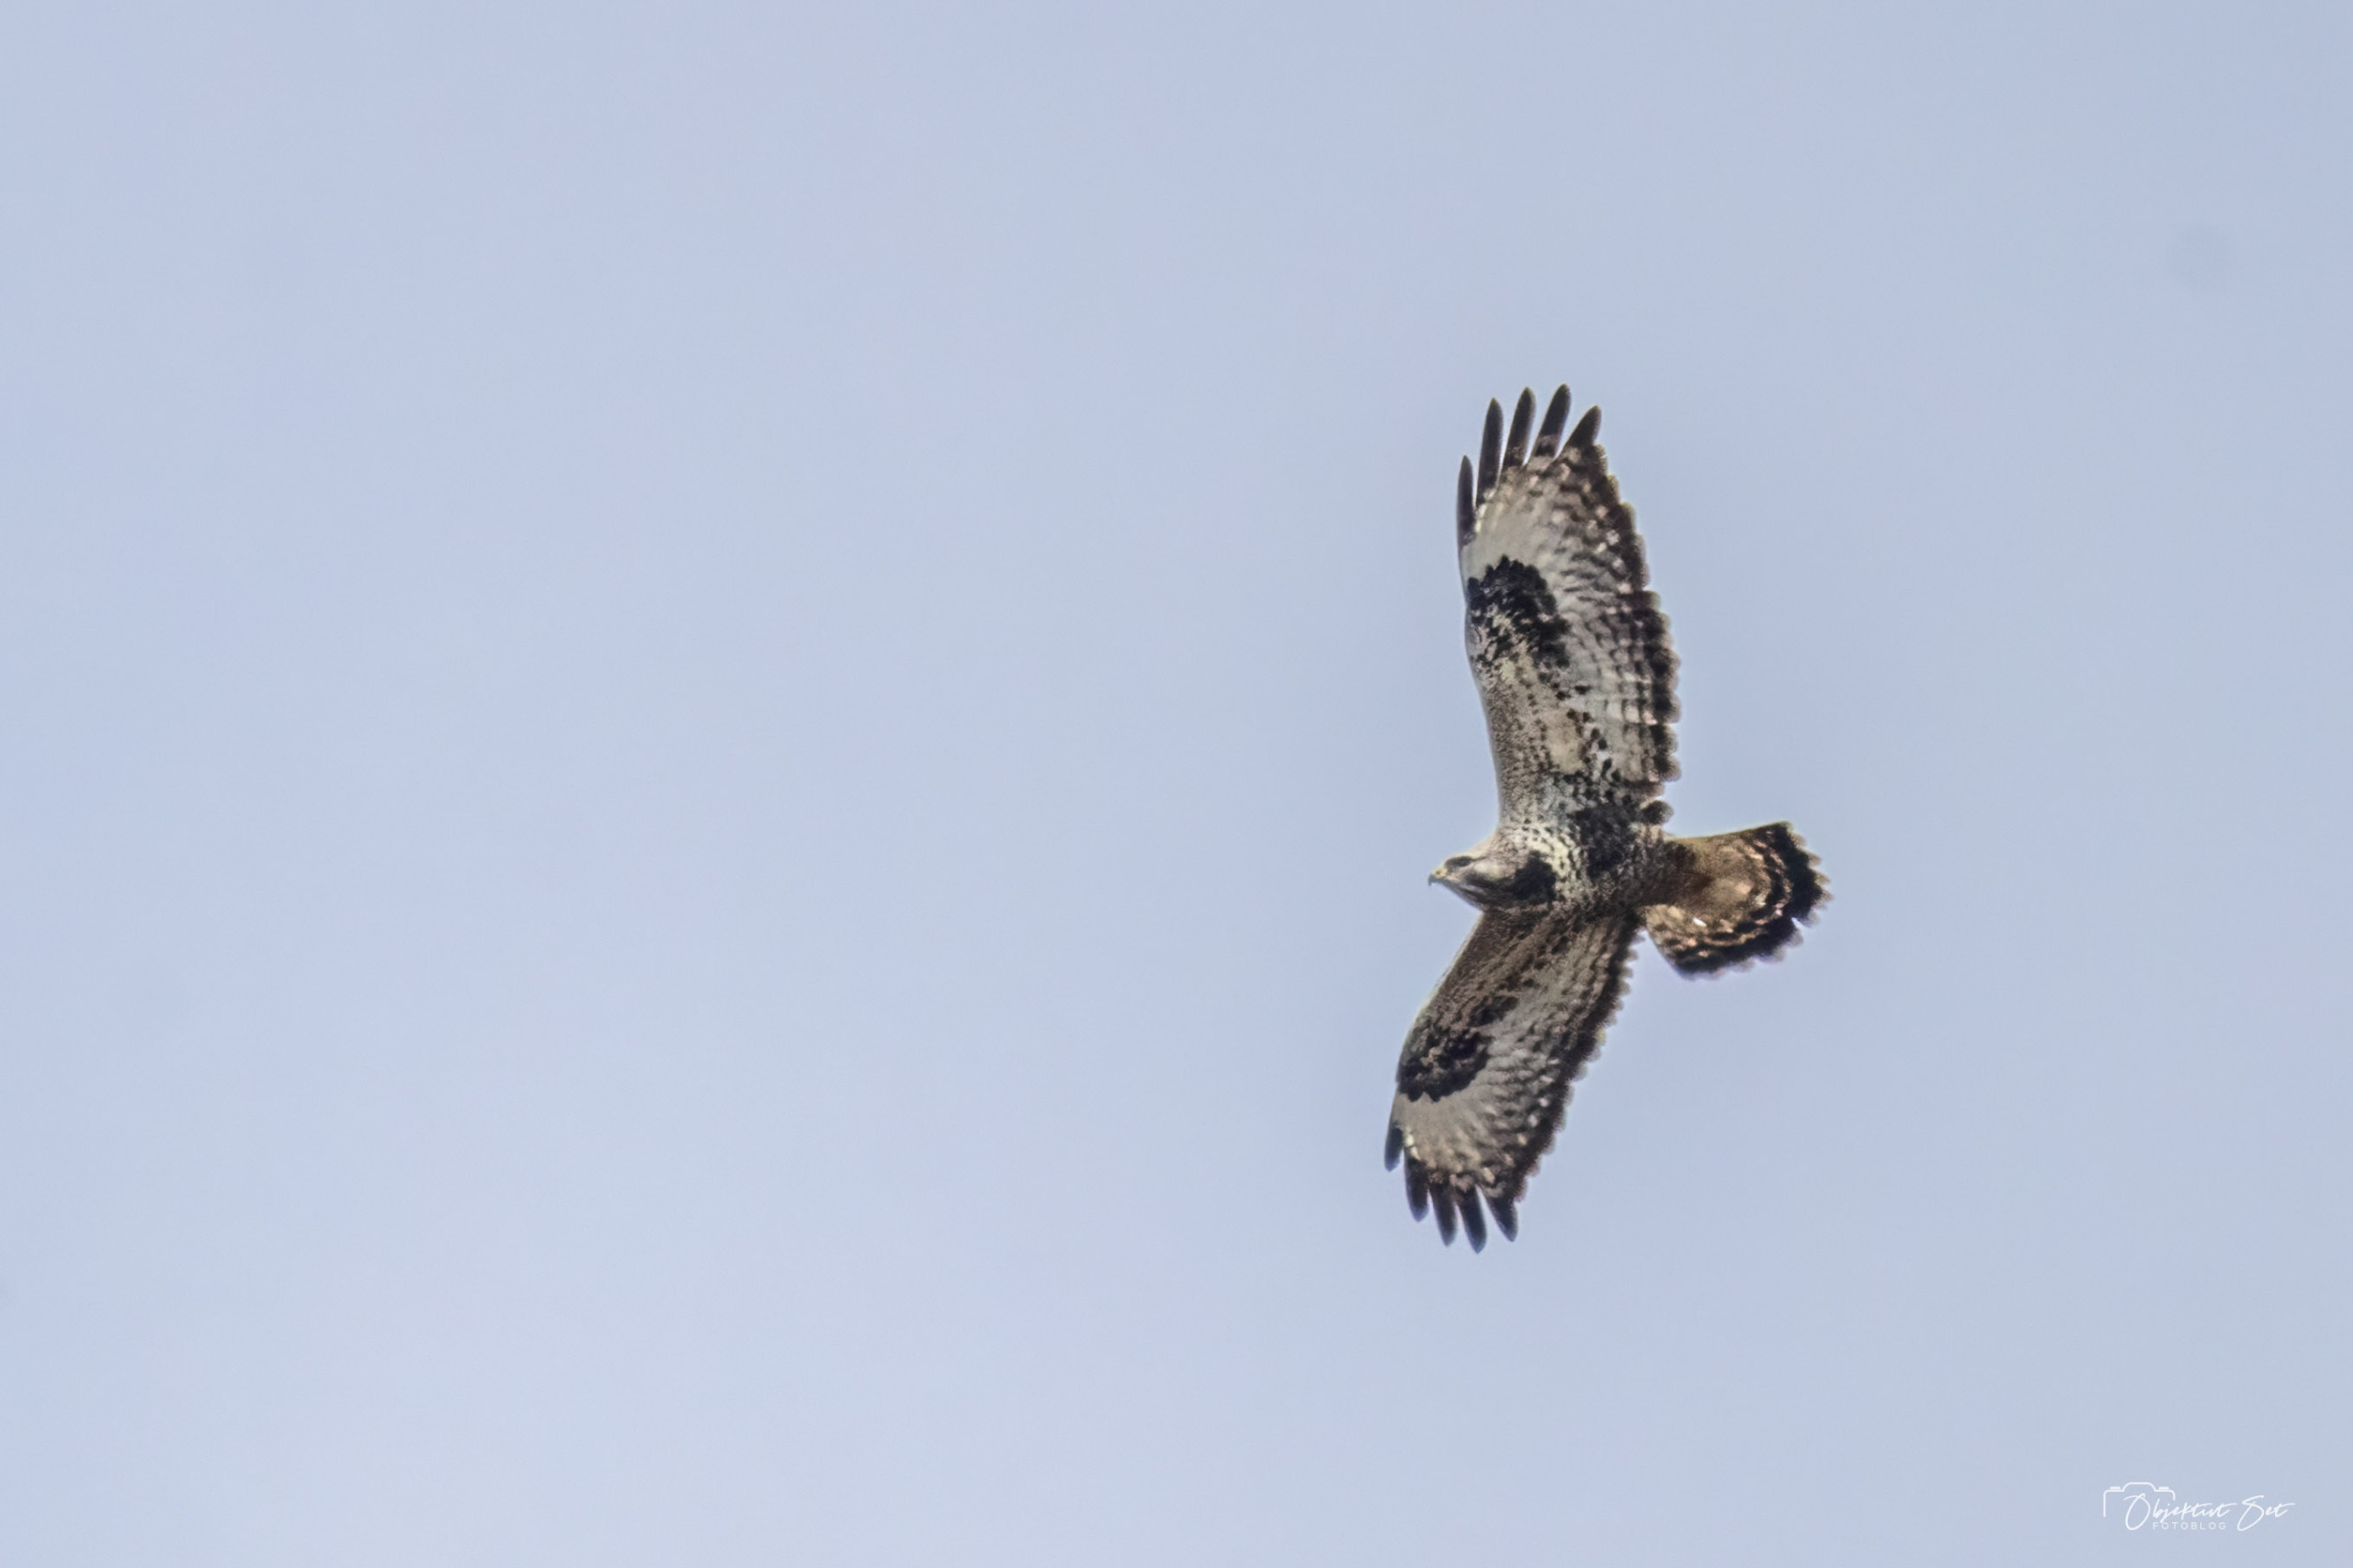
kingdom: Animalia
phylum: Chordata
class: Aves
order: Accipitriformes
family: Accipitridae
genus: Buteo
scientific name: Buteo lagopus
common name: Fjeldvåge
